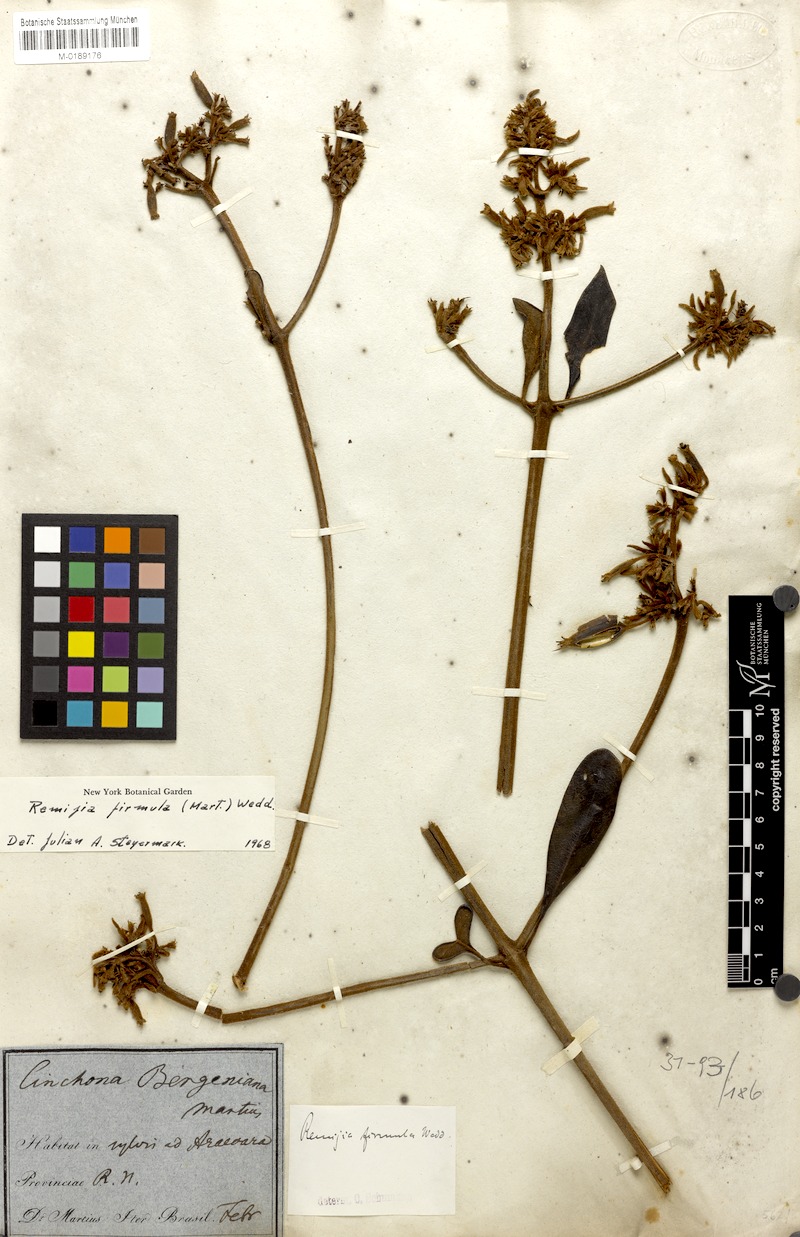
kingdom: Plantae
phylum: Tracheophyta
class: Magnoliopsida
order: Gentianales
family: Rubiaceae
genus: Remijia
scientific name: Remijia firmula
